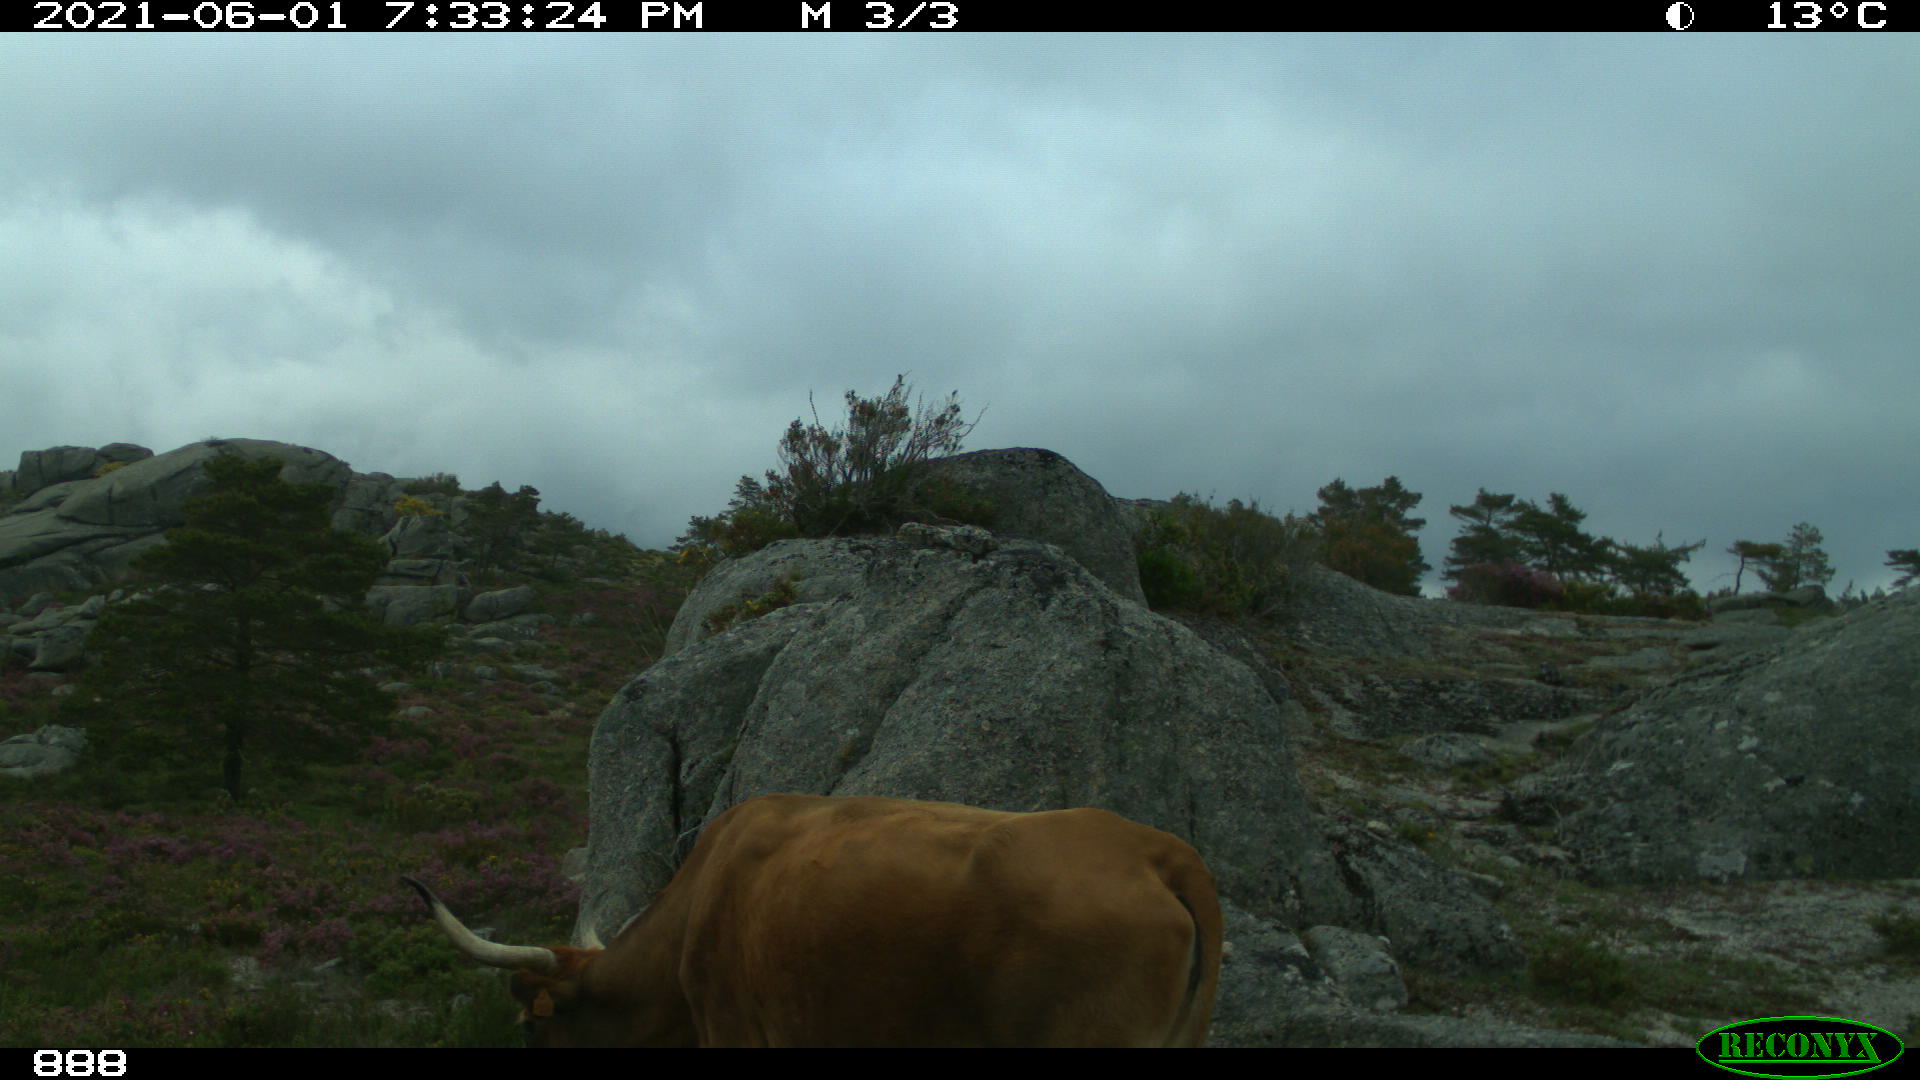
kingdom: Animalia
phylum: Chordata
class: Mammalia
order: Artiodactyla
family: Bovidae
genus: Bos
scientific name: Bos taurus
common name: Domesticated cattle
